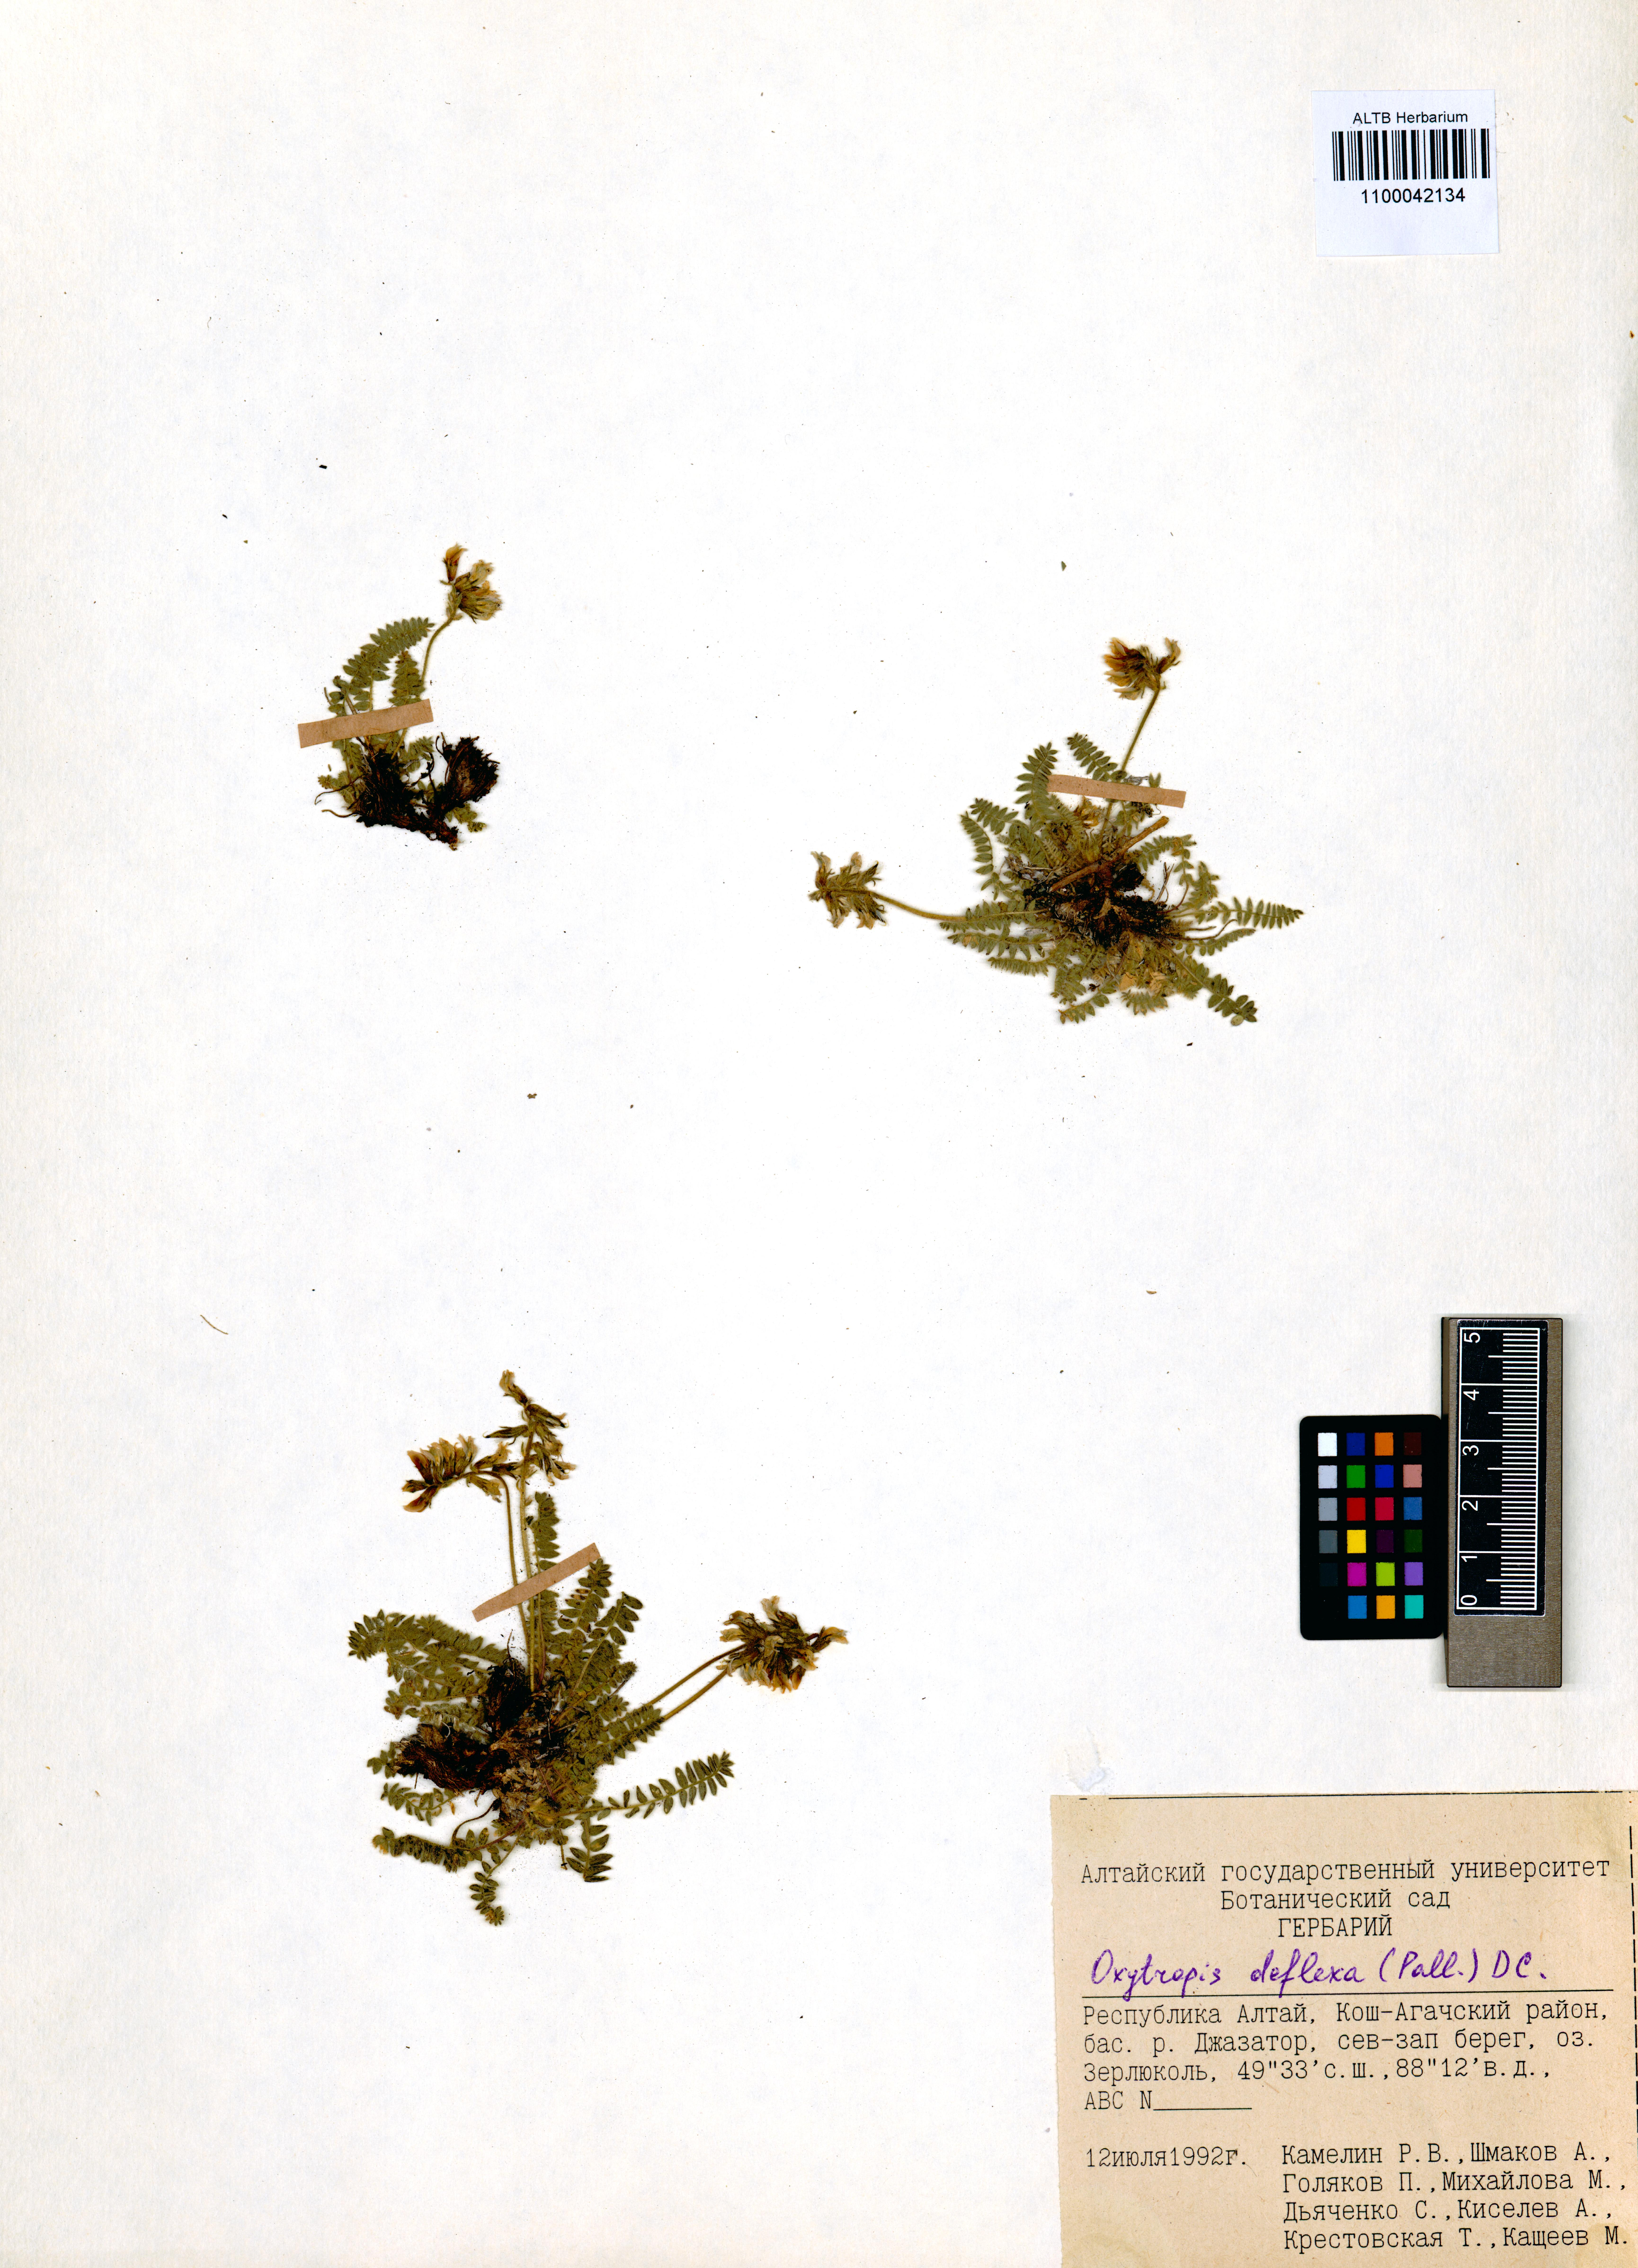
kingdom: Plantae
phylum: Tracheophyta
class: Magnoliopsida
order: Fabales
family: Fabaceae
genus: Oxytropis
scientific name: Oxytropis deflexa
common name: Stemmed oxytrope
